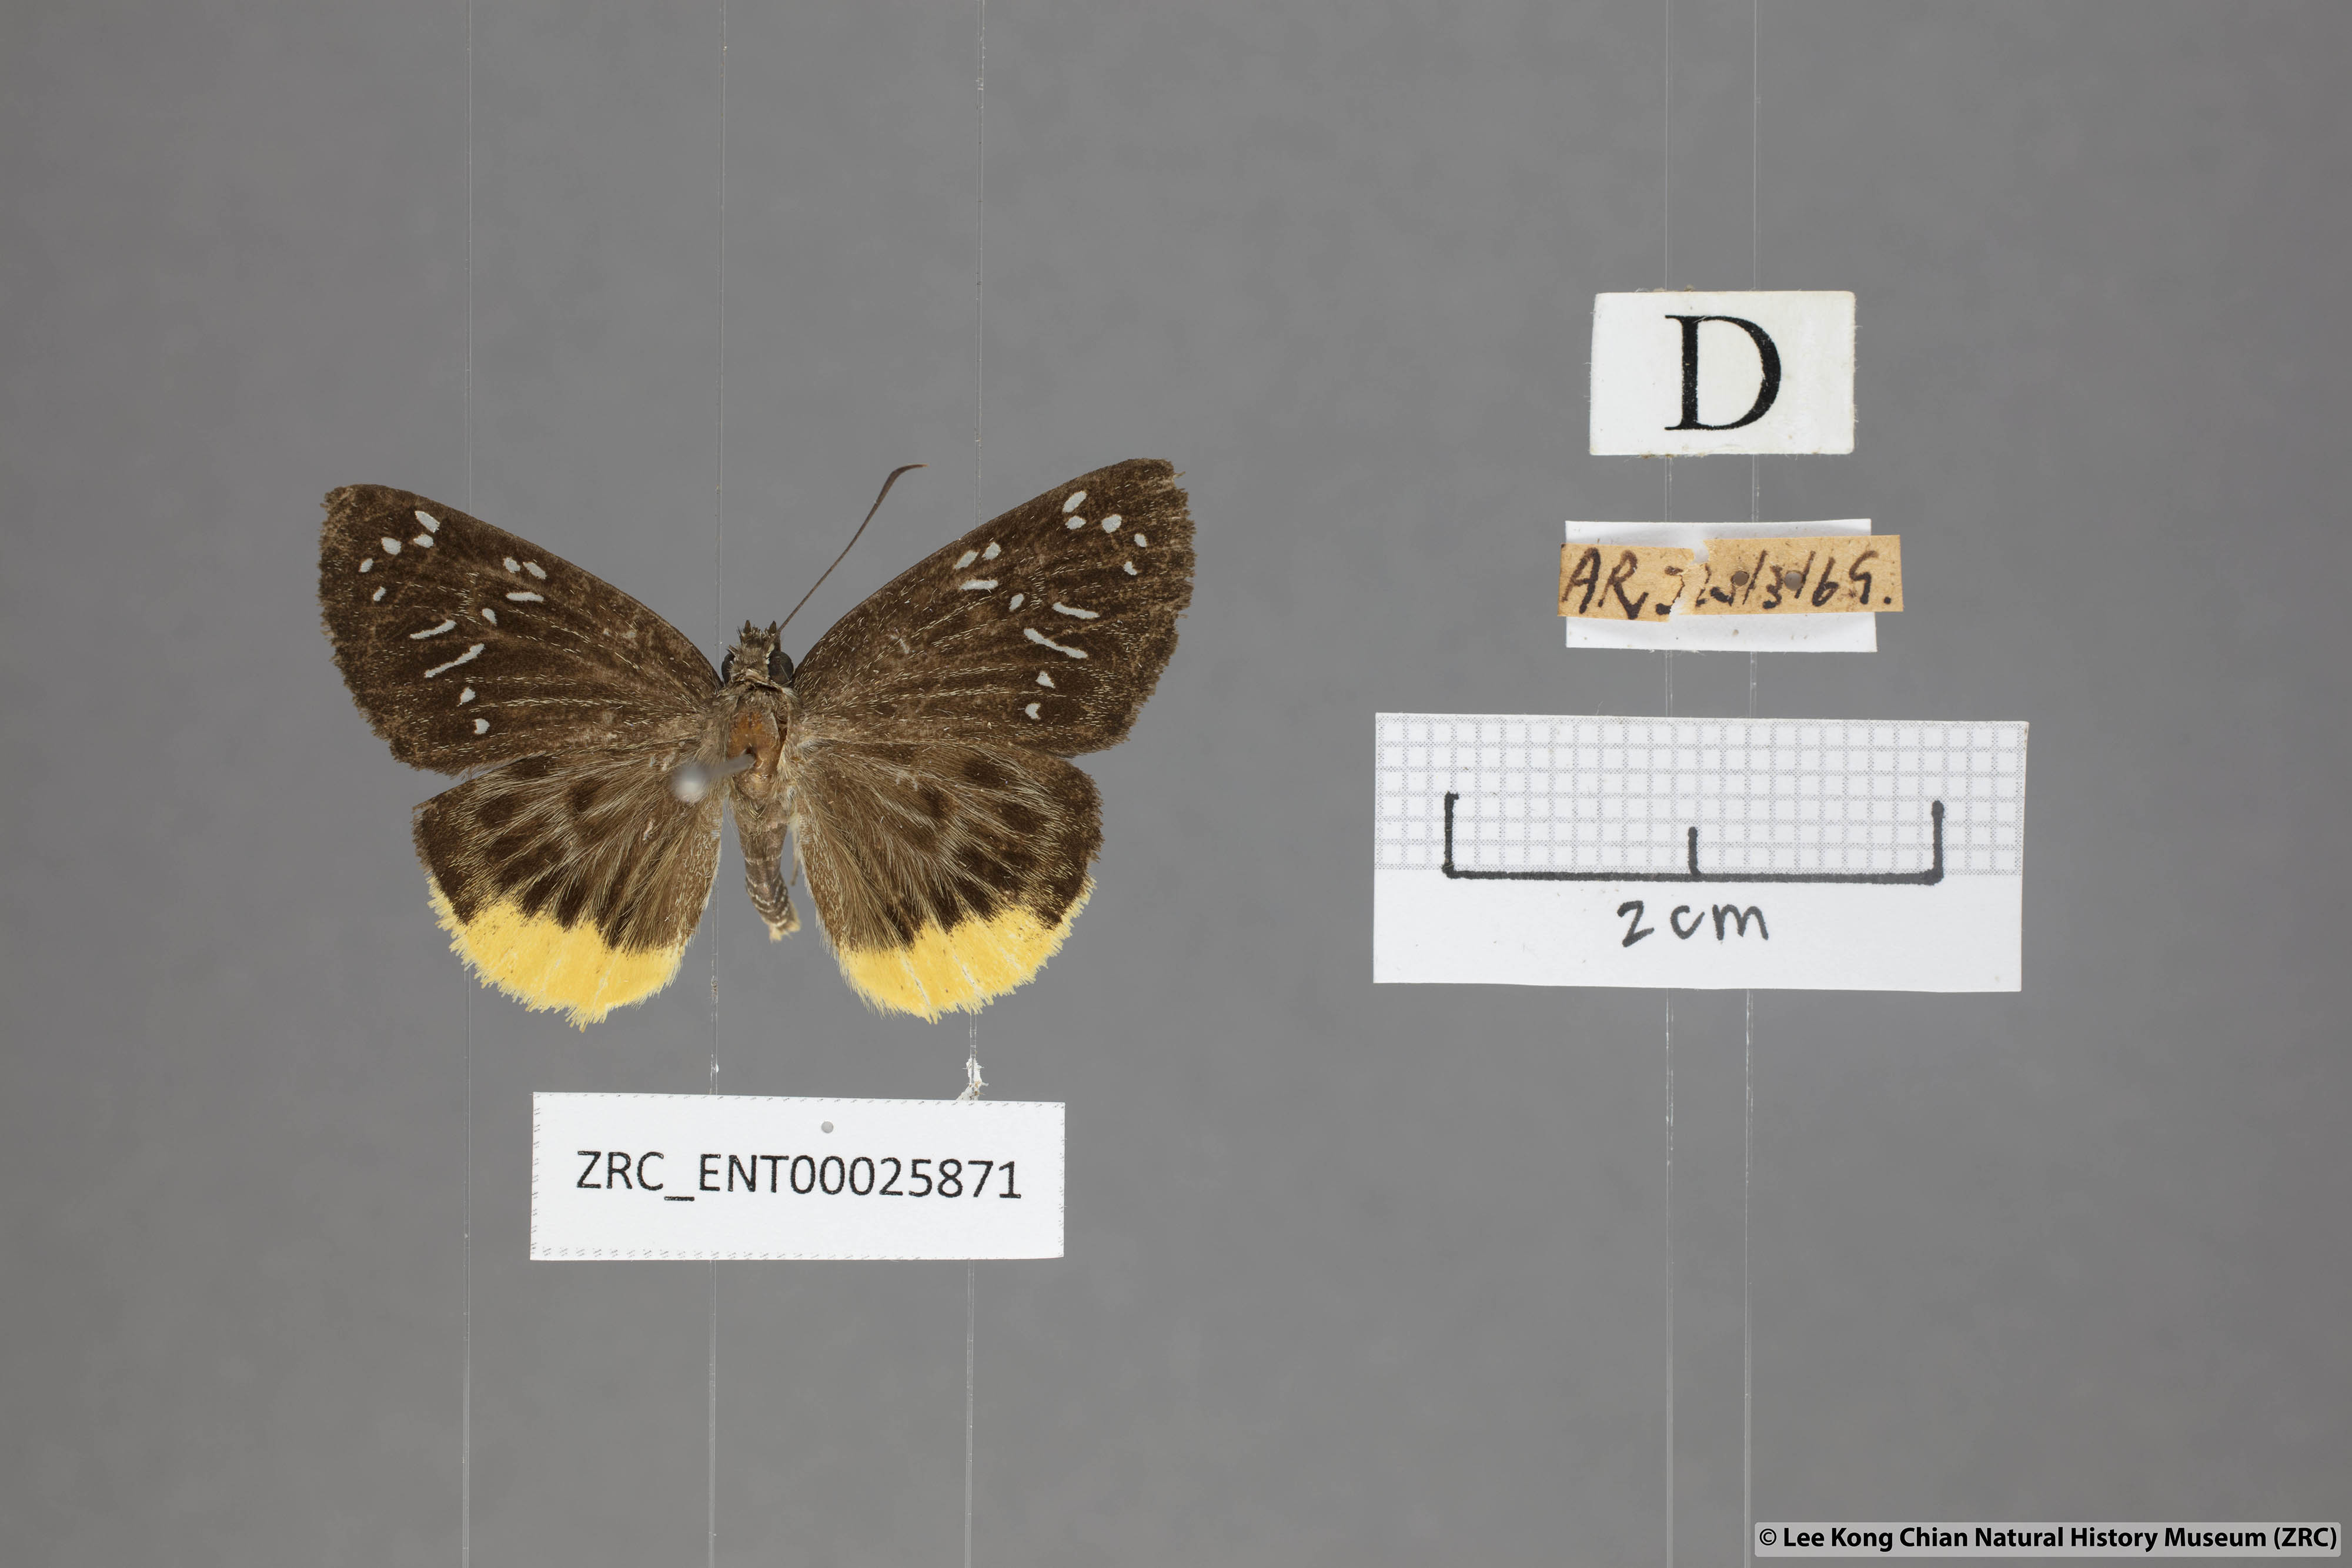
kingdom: Animalia
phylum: Arthropoda
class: Insecta
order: Lepidoptera
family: Hesperiidae
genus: Mooreana
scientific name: Mooreana trichoneura
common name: Yellow flat
